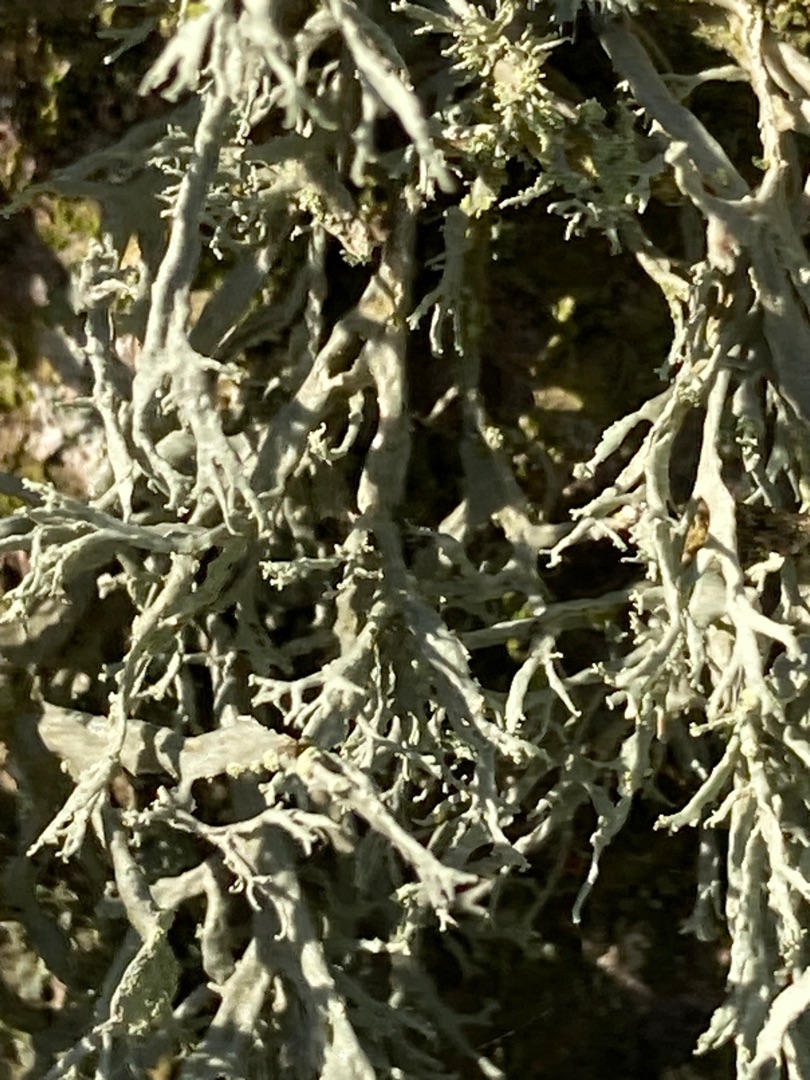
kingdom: Fungi
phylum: Ascomycota
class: Lecanoromycetes
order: Lecanorales
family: Ramalinaceae
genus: Ramalina
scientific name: Ramalina farinacea
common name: Melet grenlav
